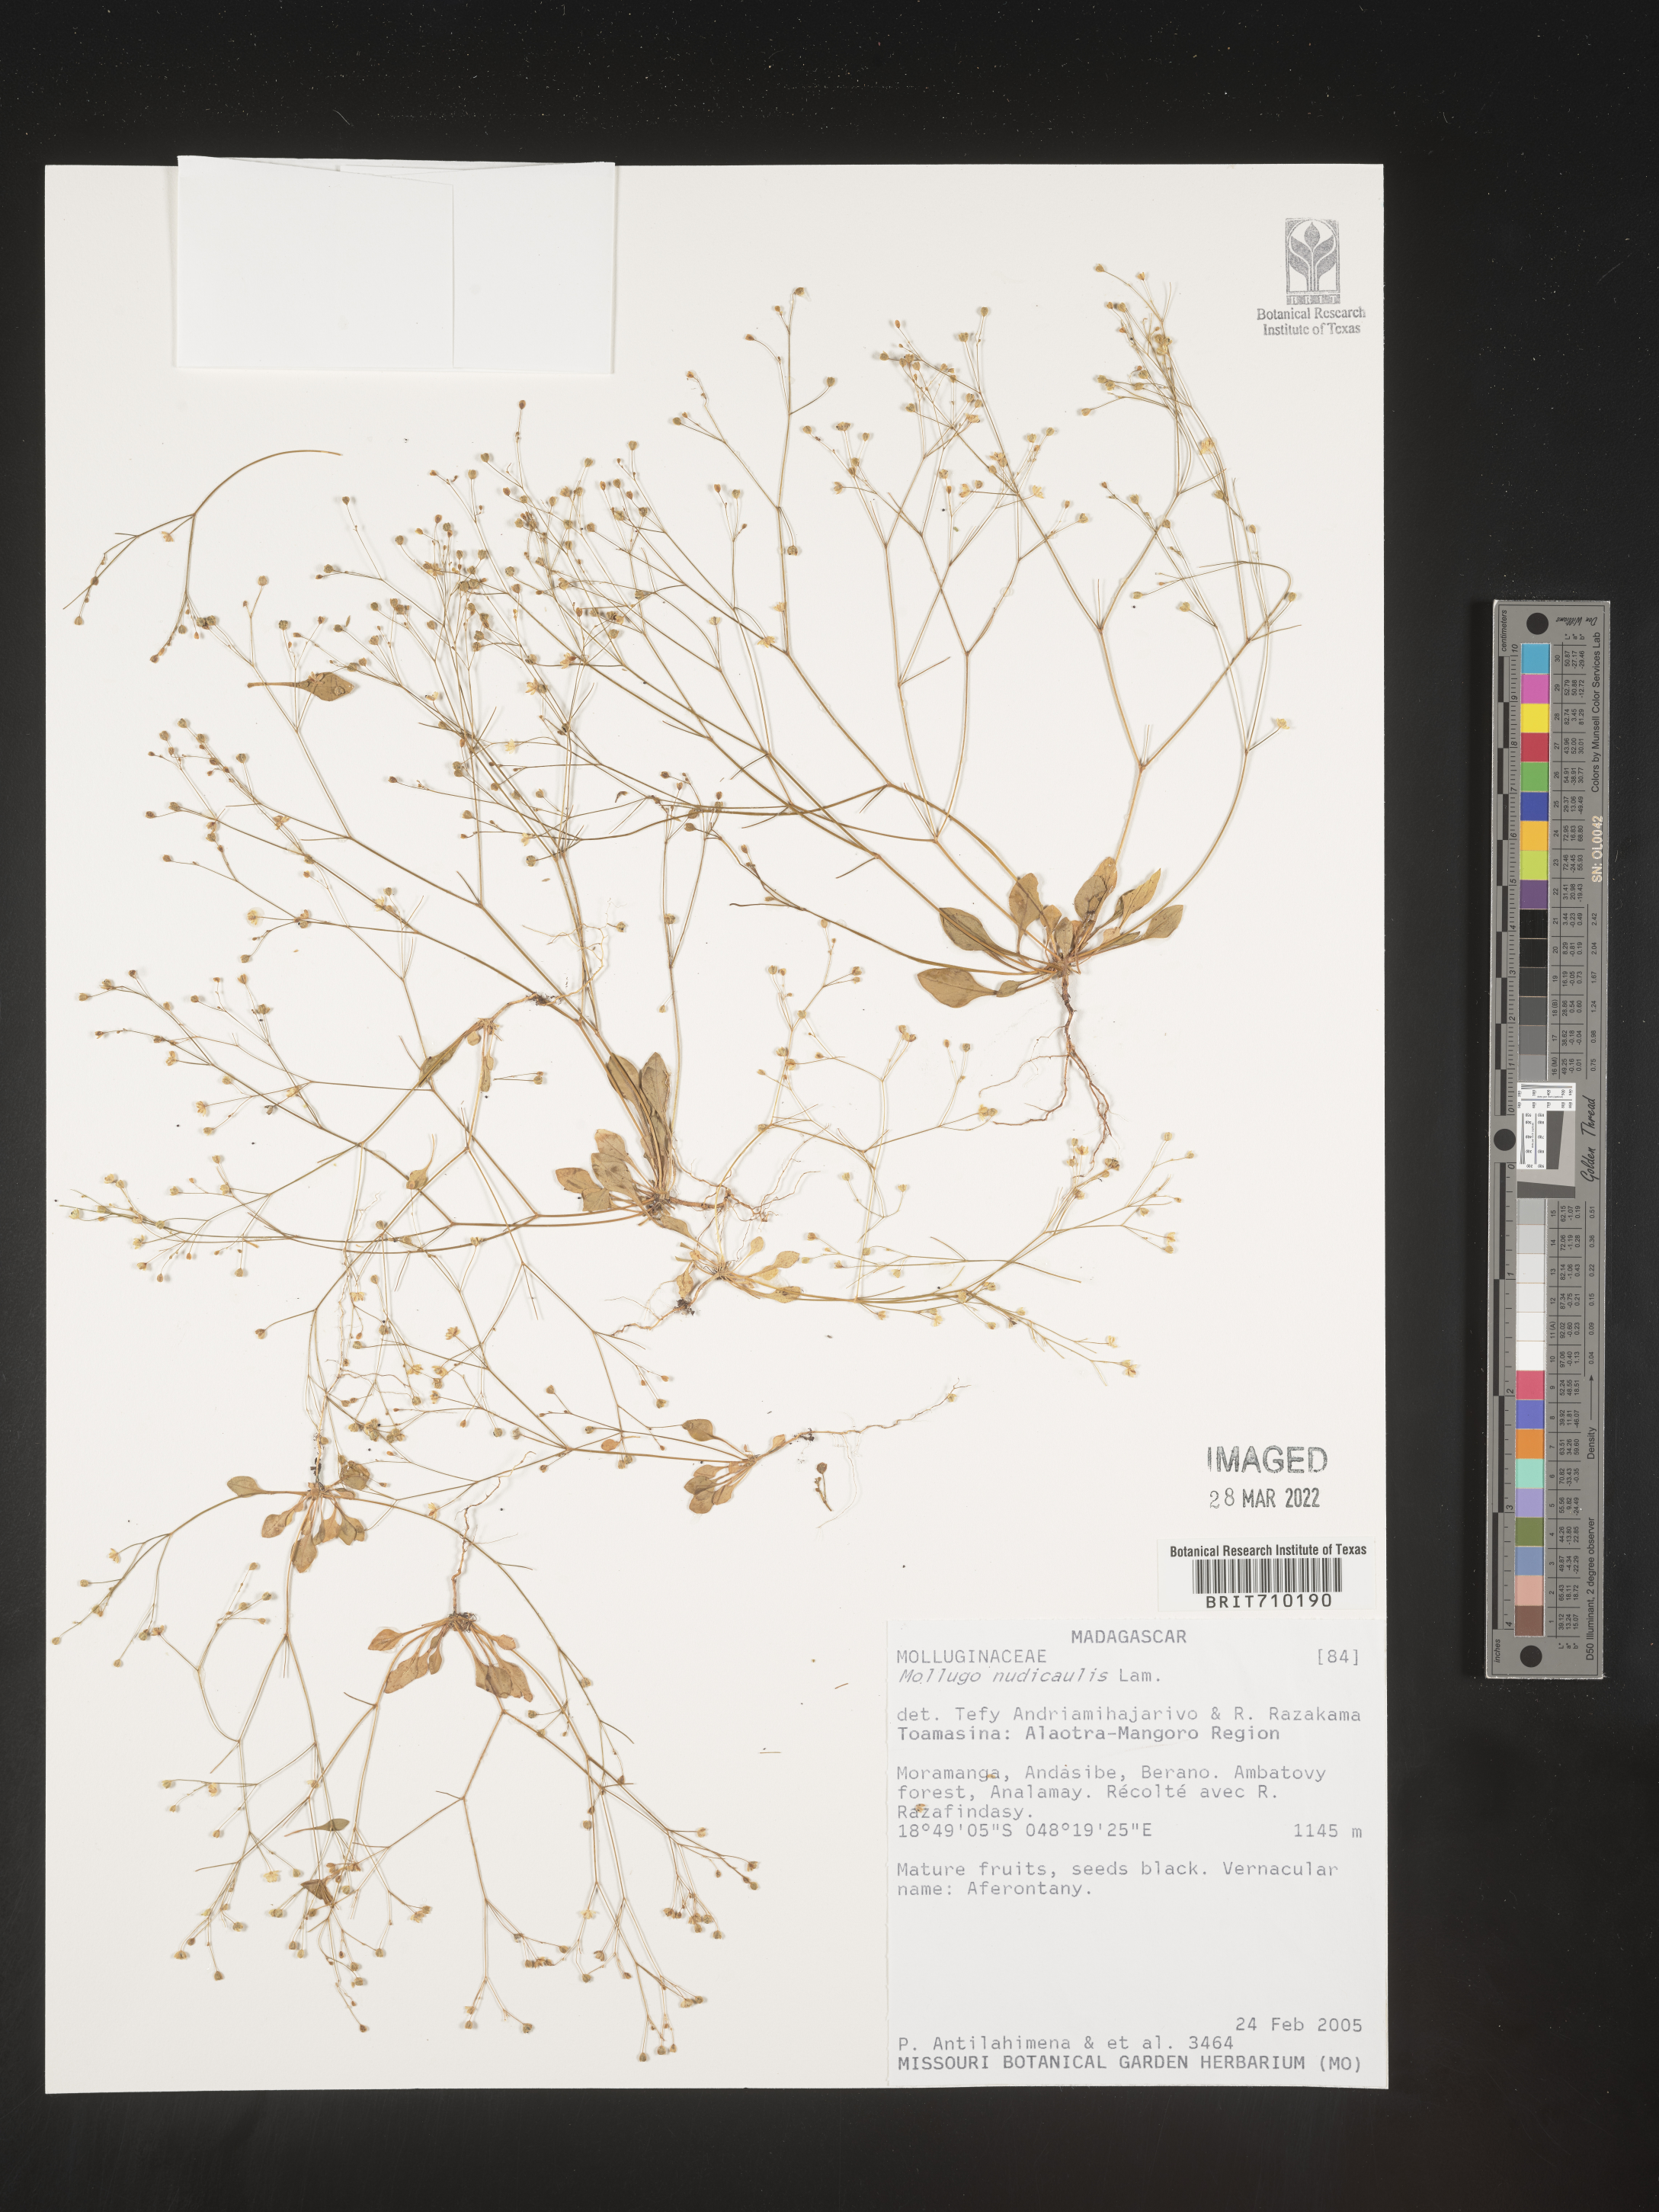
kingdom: Plantae
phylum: Tracheophyta
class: Magnoliopsida
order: Caryophyllales
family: Molluginaceae
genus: Mollugo
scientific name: Mollugo
